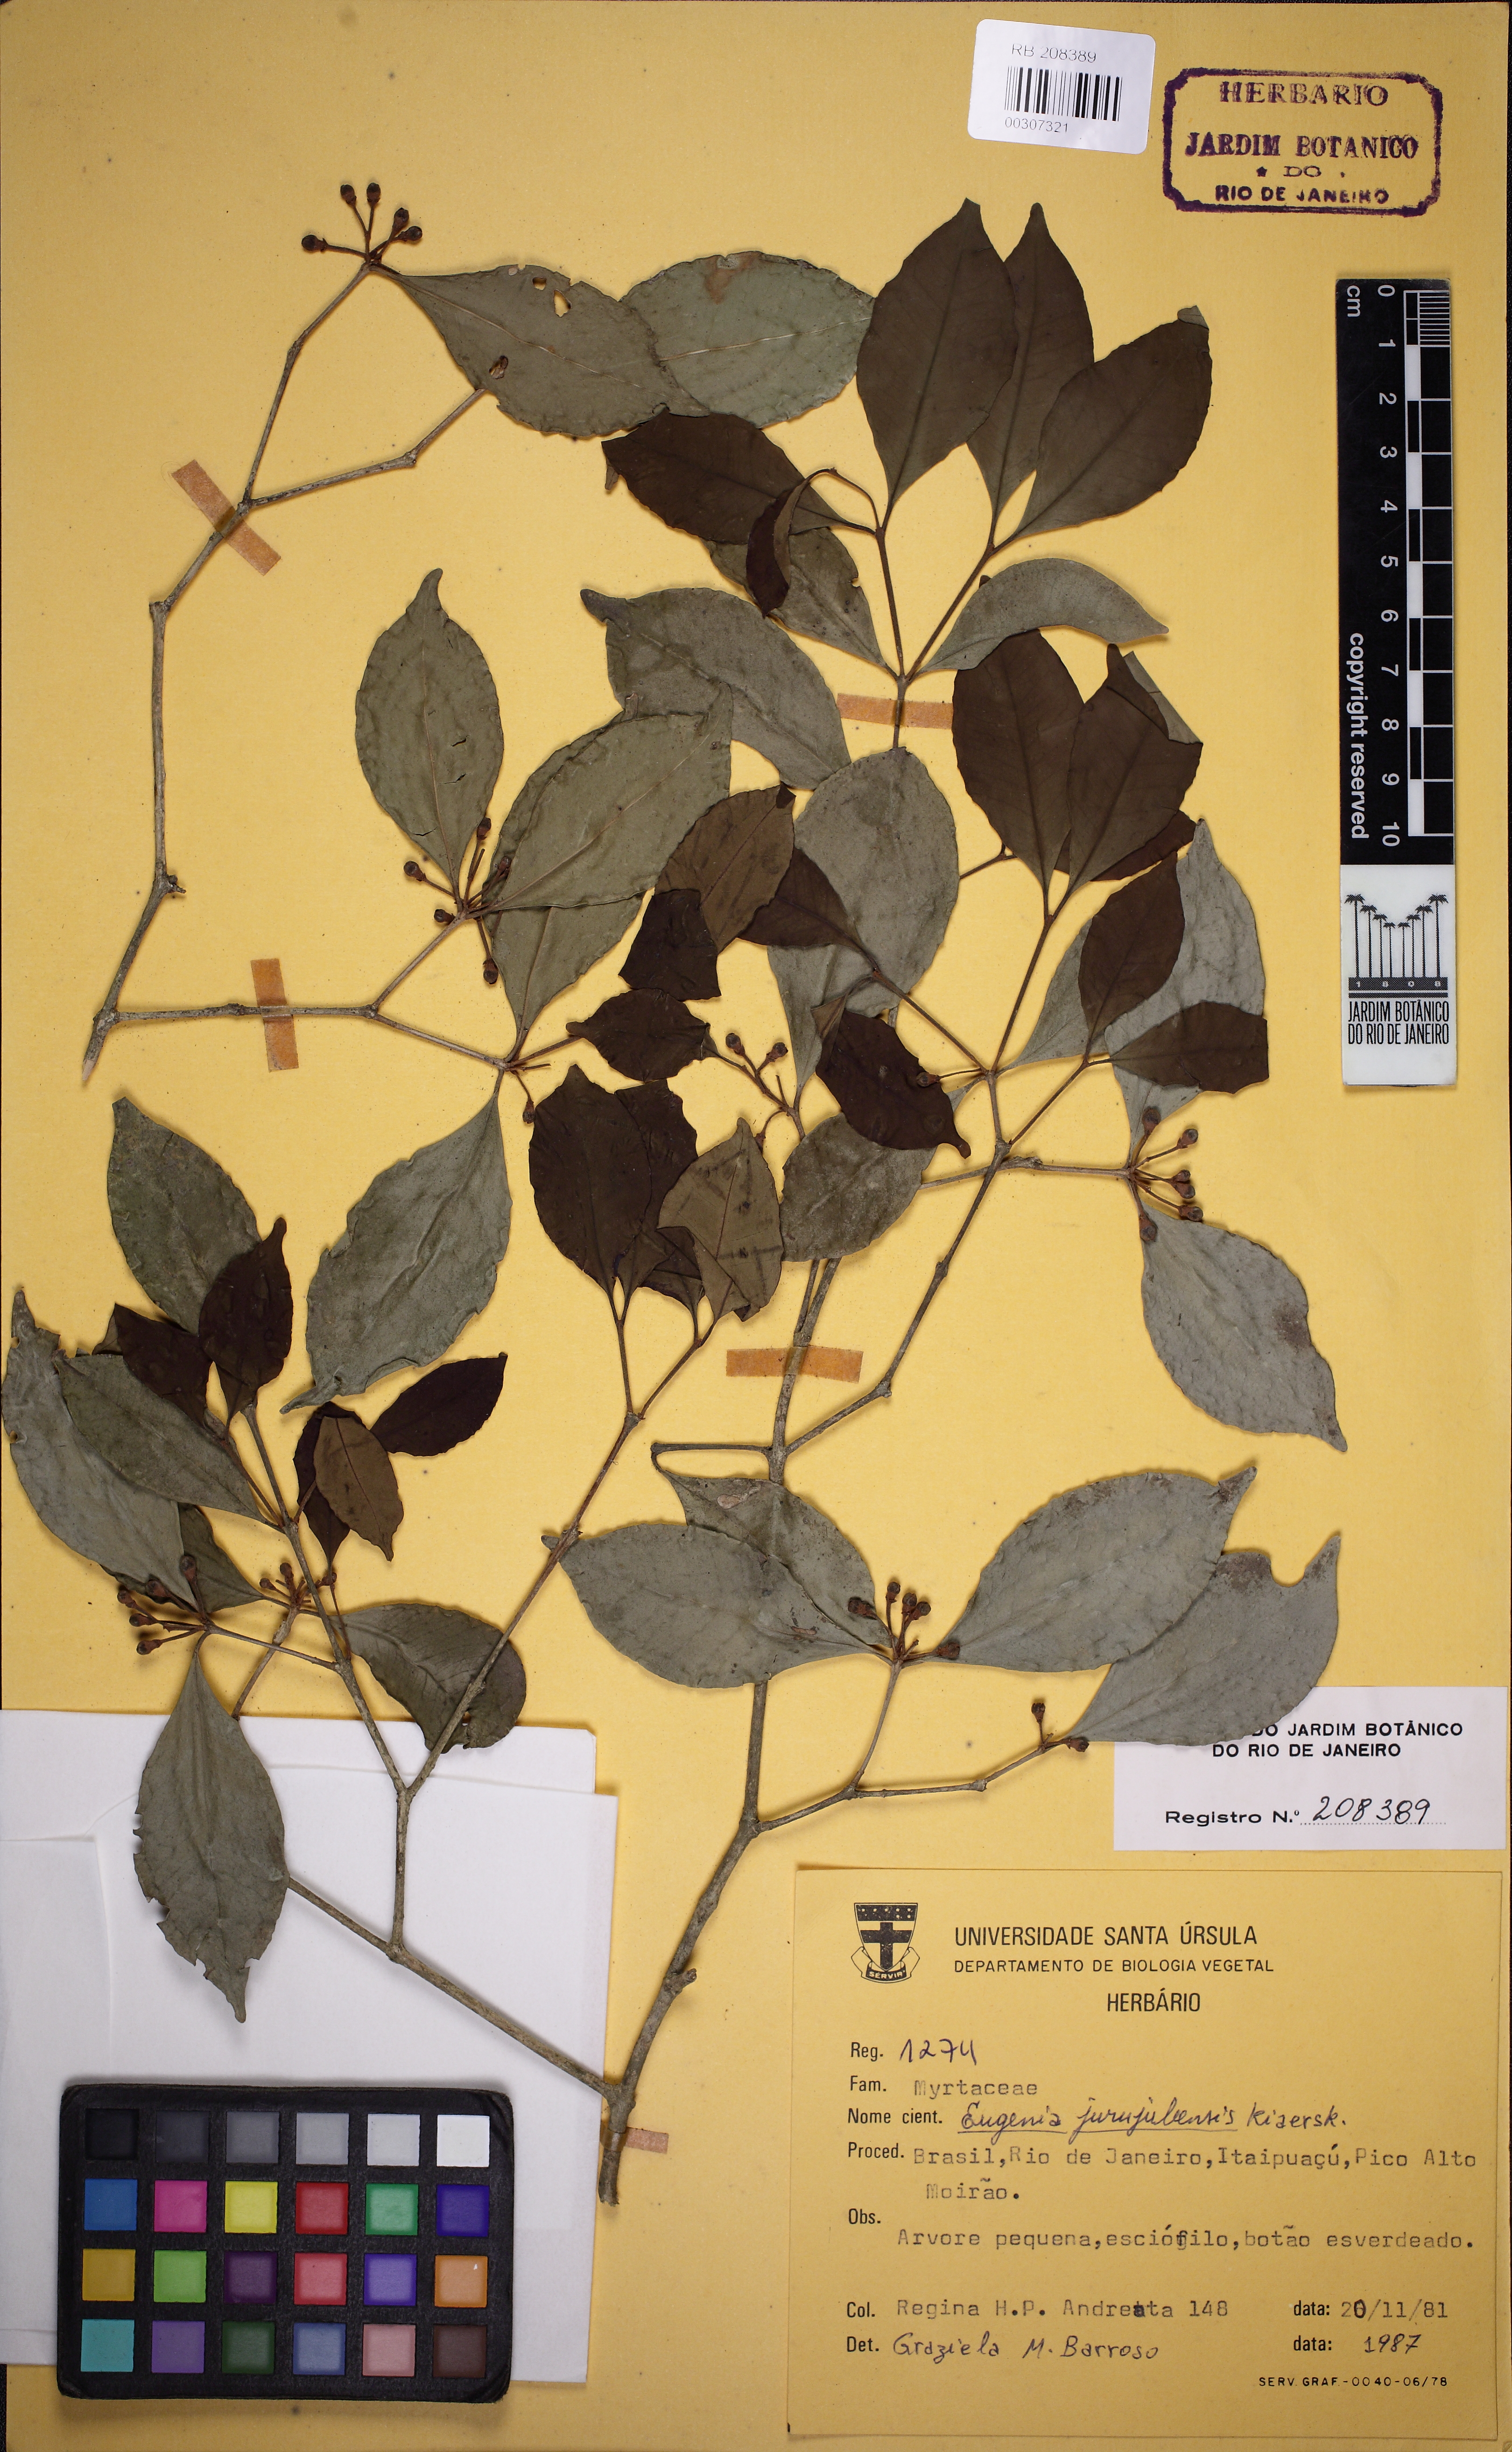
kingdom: Plantae
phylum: Tracheophyta
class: Magnoliopsida
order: Myrtales
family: Myrtaceae
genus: Eugenia
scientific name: Eugenia prasina
